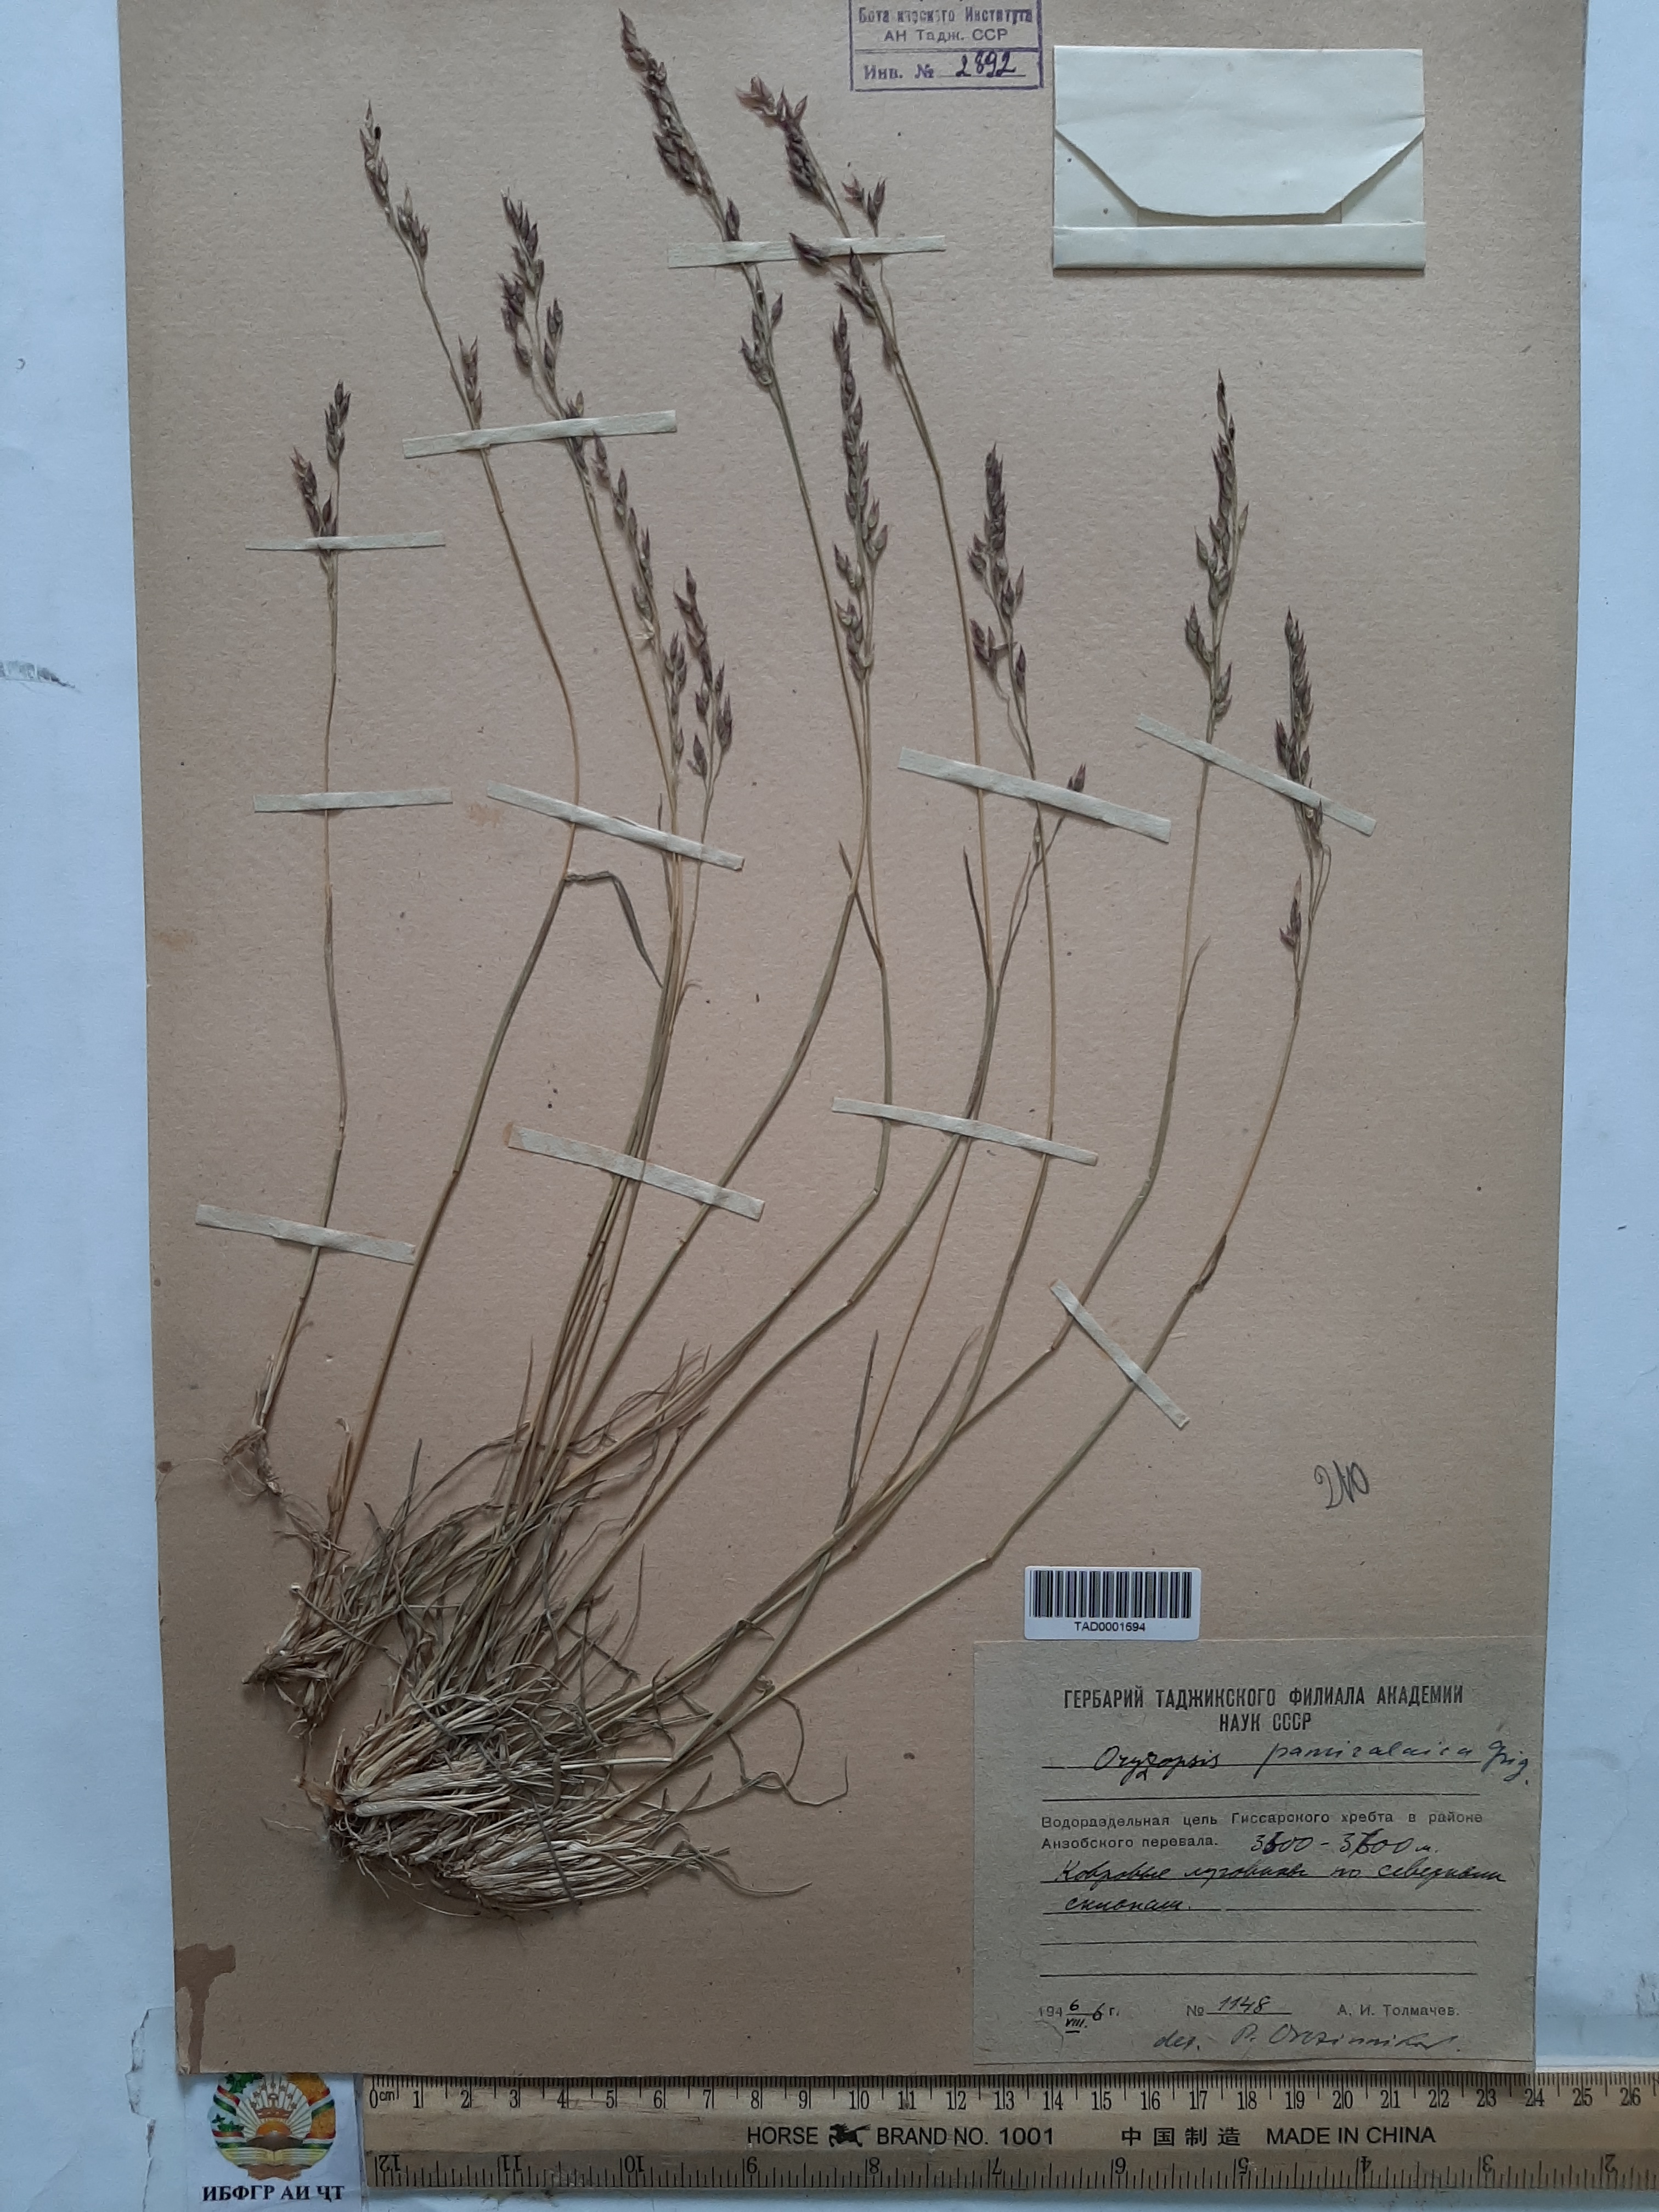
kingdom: Plantae
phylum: Tracheophyta
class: Liliopsida
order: Poales
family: Poaceae
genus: Piptatherum
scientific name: Piptatherum pamiralaicum
